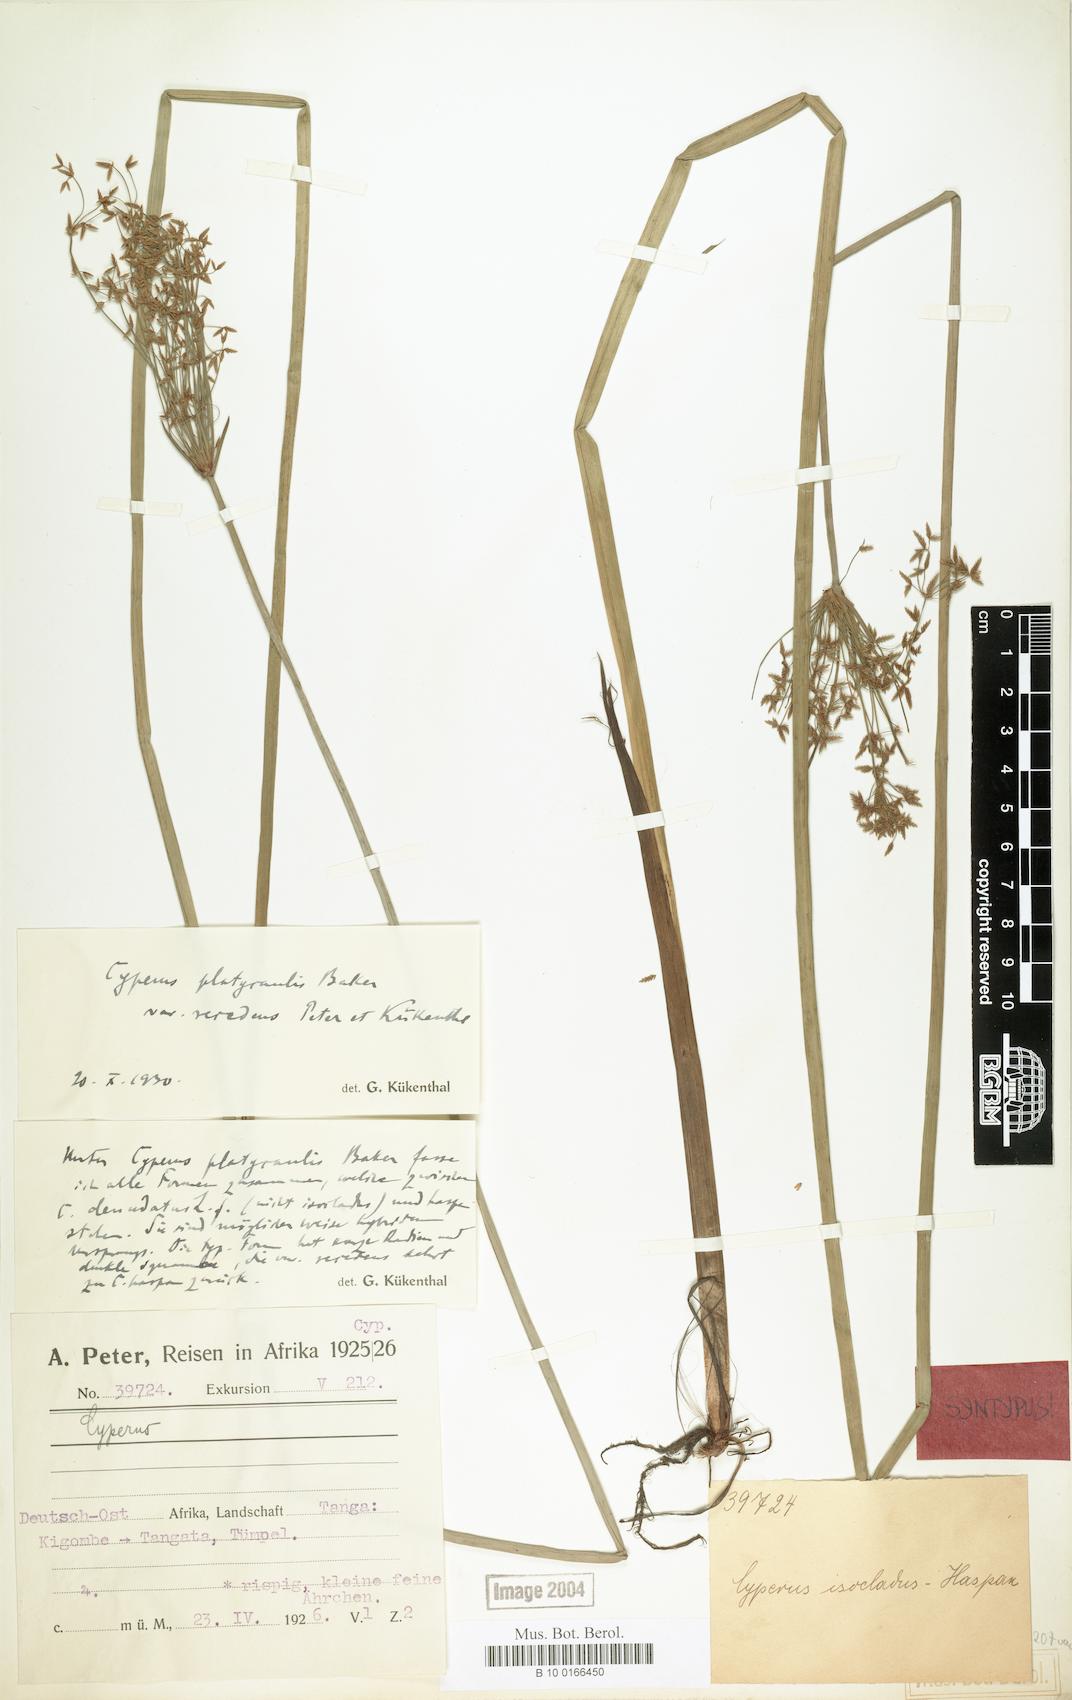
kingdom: Plantae
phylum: Tracheophyta
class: Liliopsida
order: Poales
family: Cyperaceae
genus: Cyperus
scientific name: Cyperus denudatus
